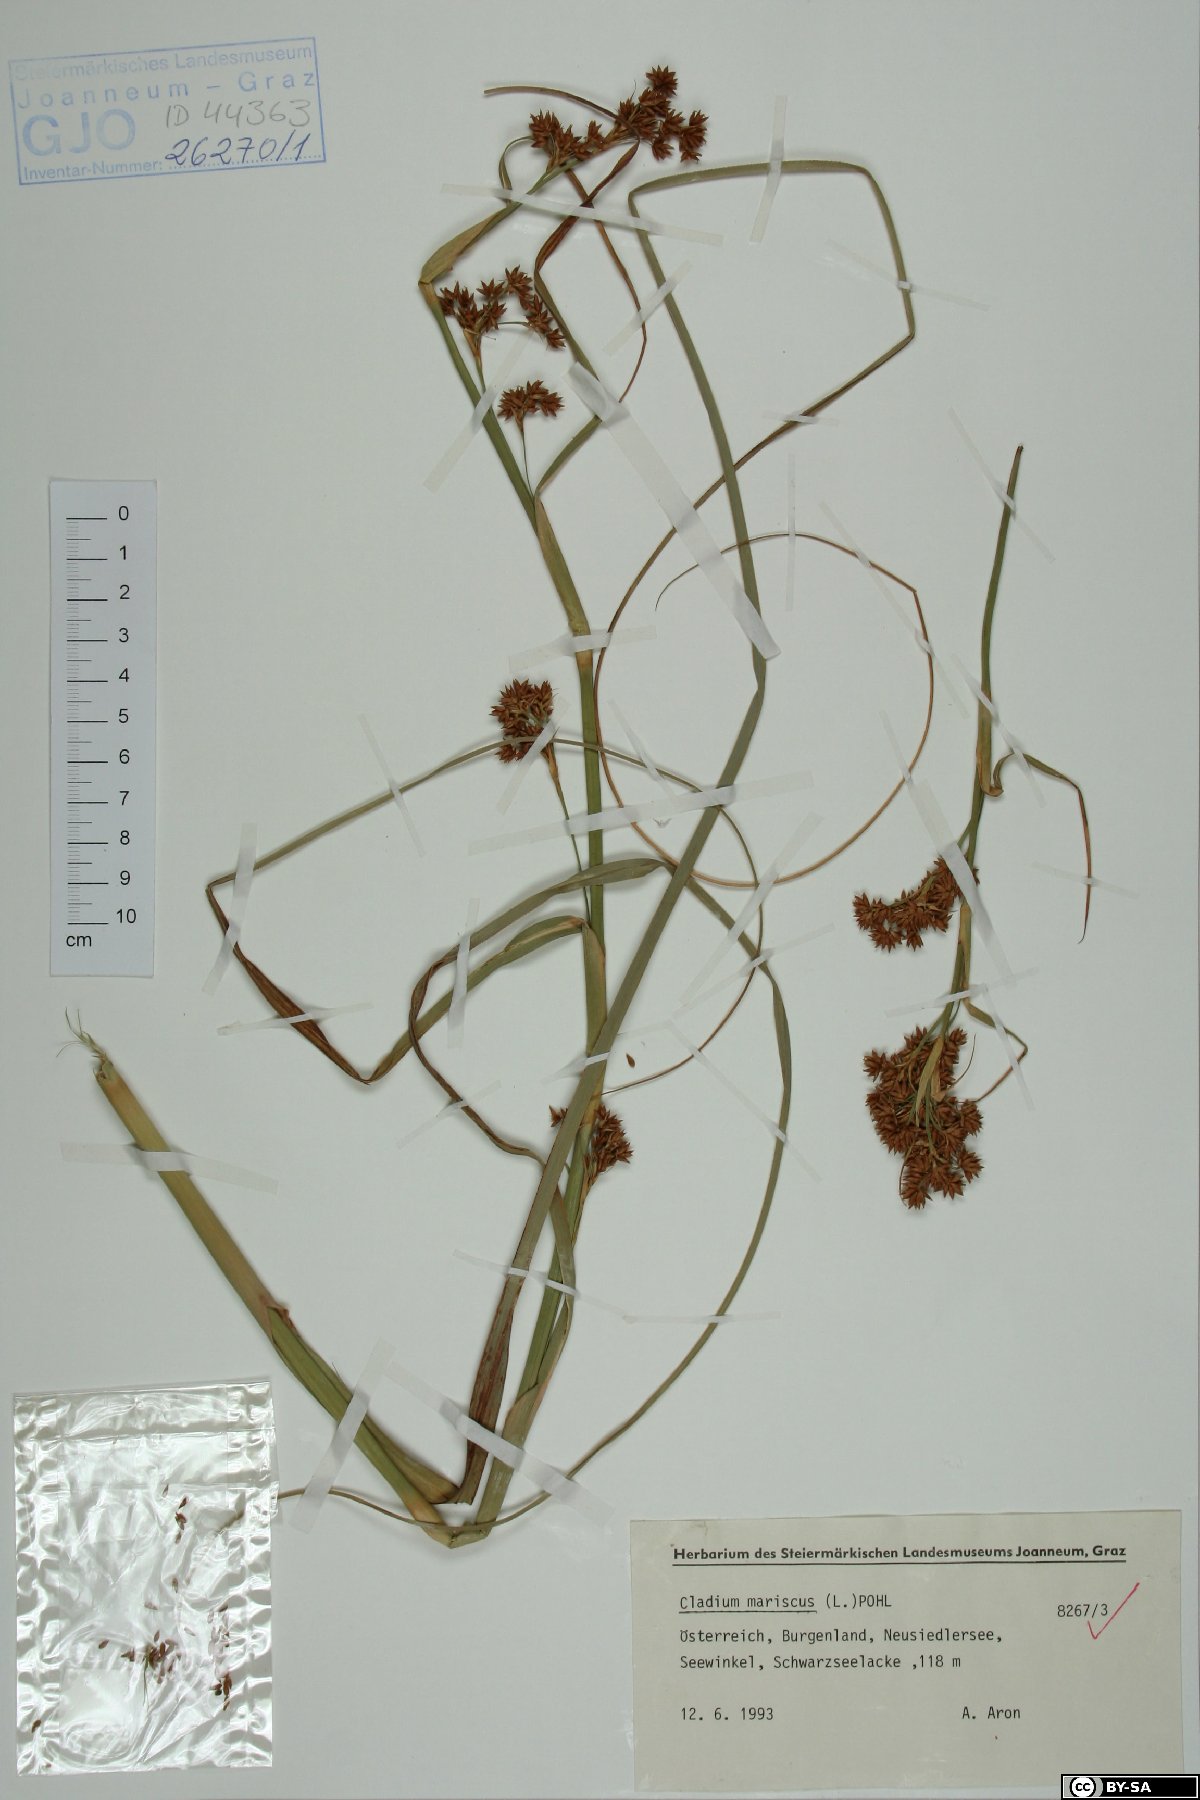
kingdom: Plantae
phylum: Tracheophyta
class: Liliopsida
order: Poales
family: Cyperaceae
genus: Cladium
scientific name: Cladium mariscus
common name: Great fen-sedge
